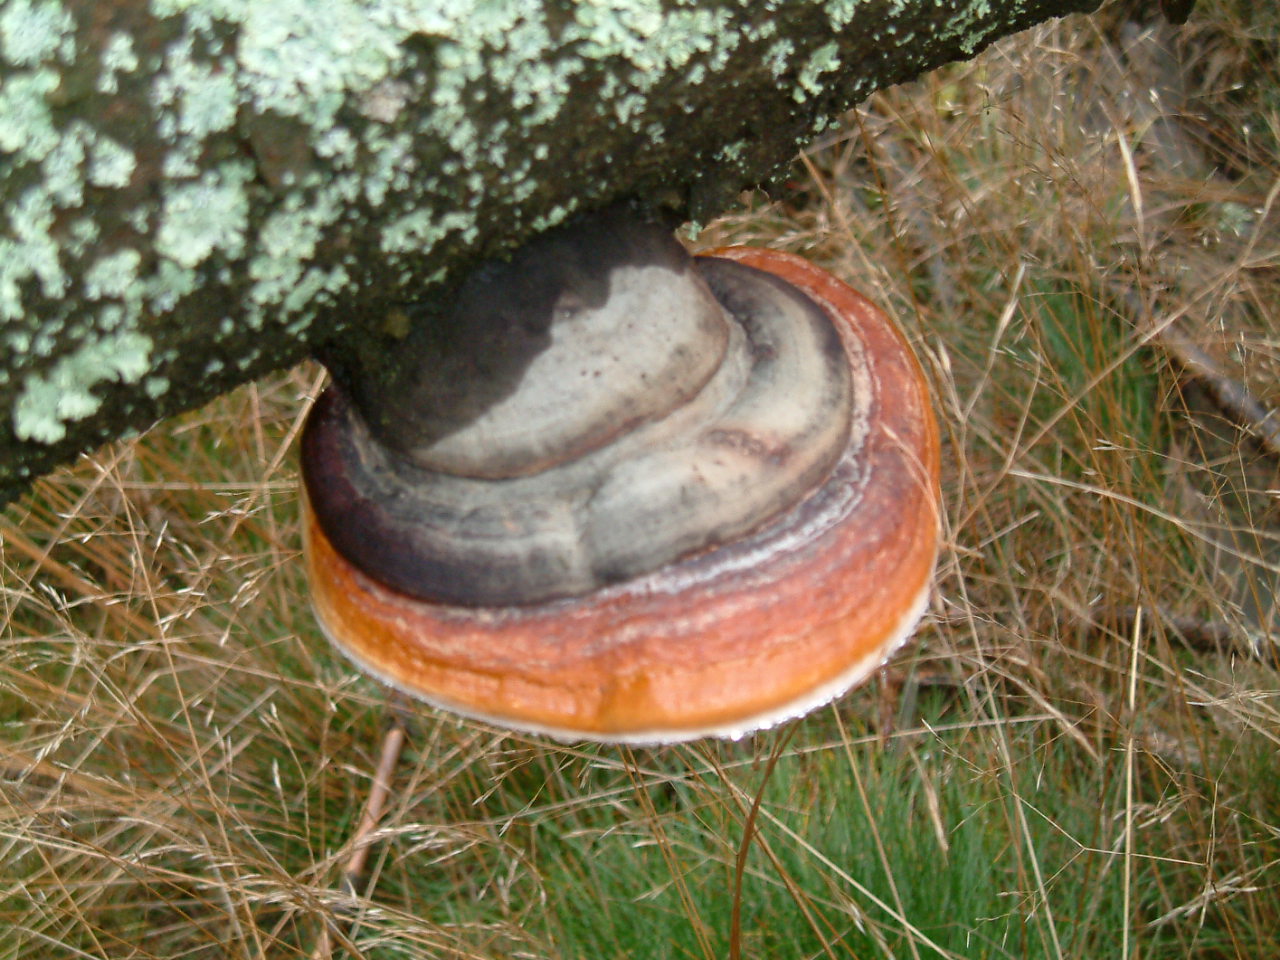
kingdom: Fungi
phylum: Basidiomycota
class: Agaricomycetes
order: Polyporales
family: Fomitopsidaceae
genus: Fomitopsis
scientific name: Fomitopsis pinicola
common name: randbæltet hovporesvamp
